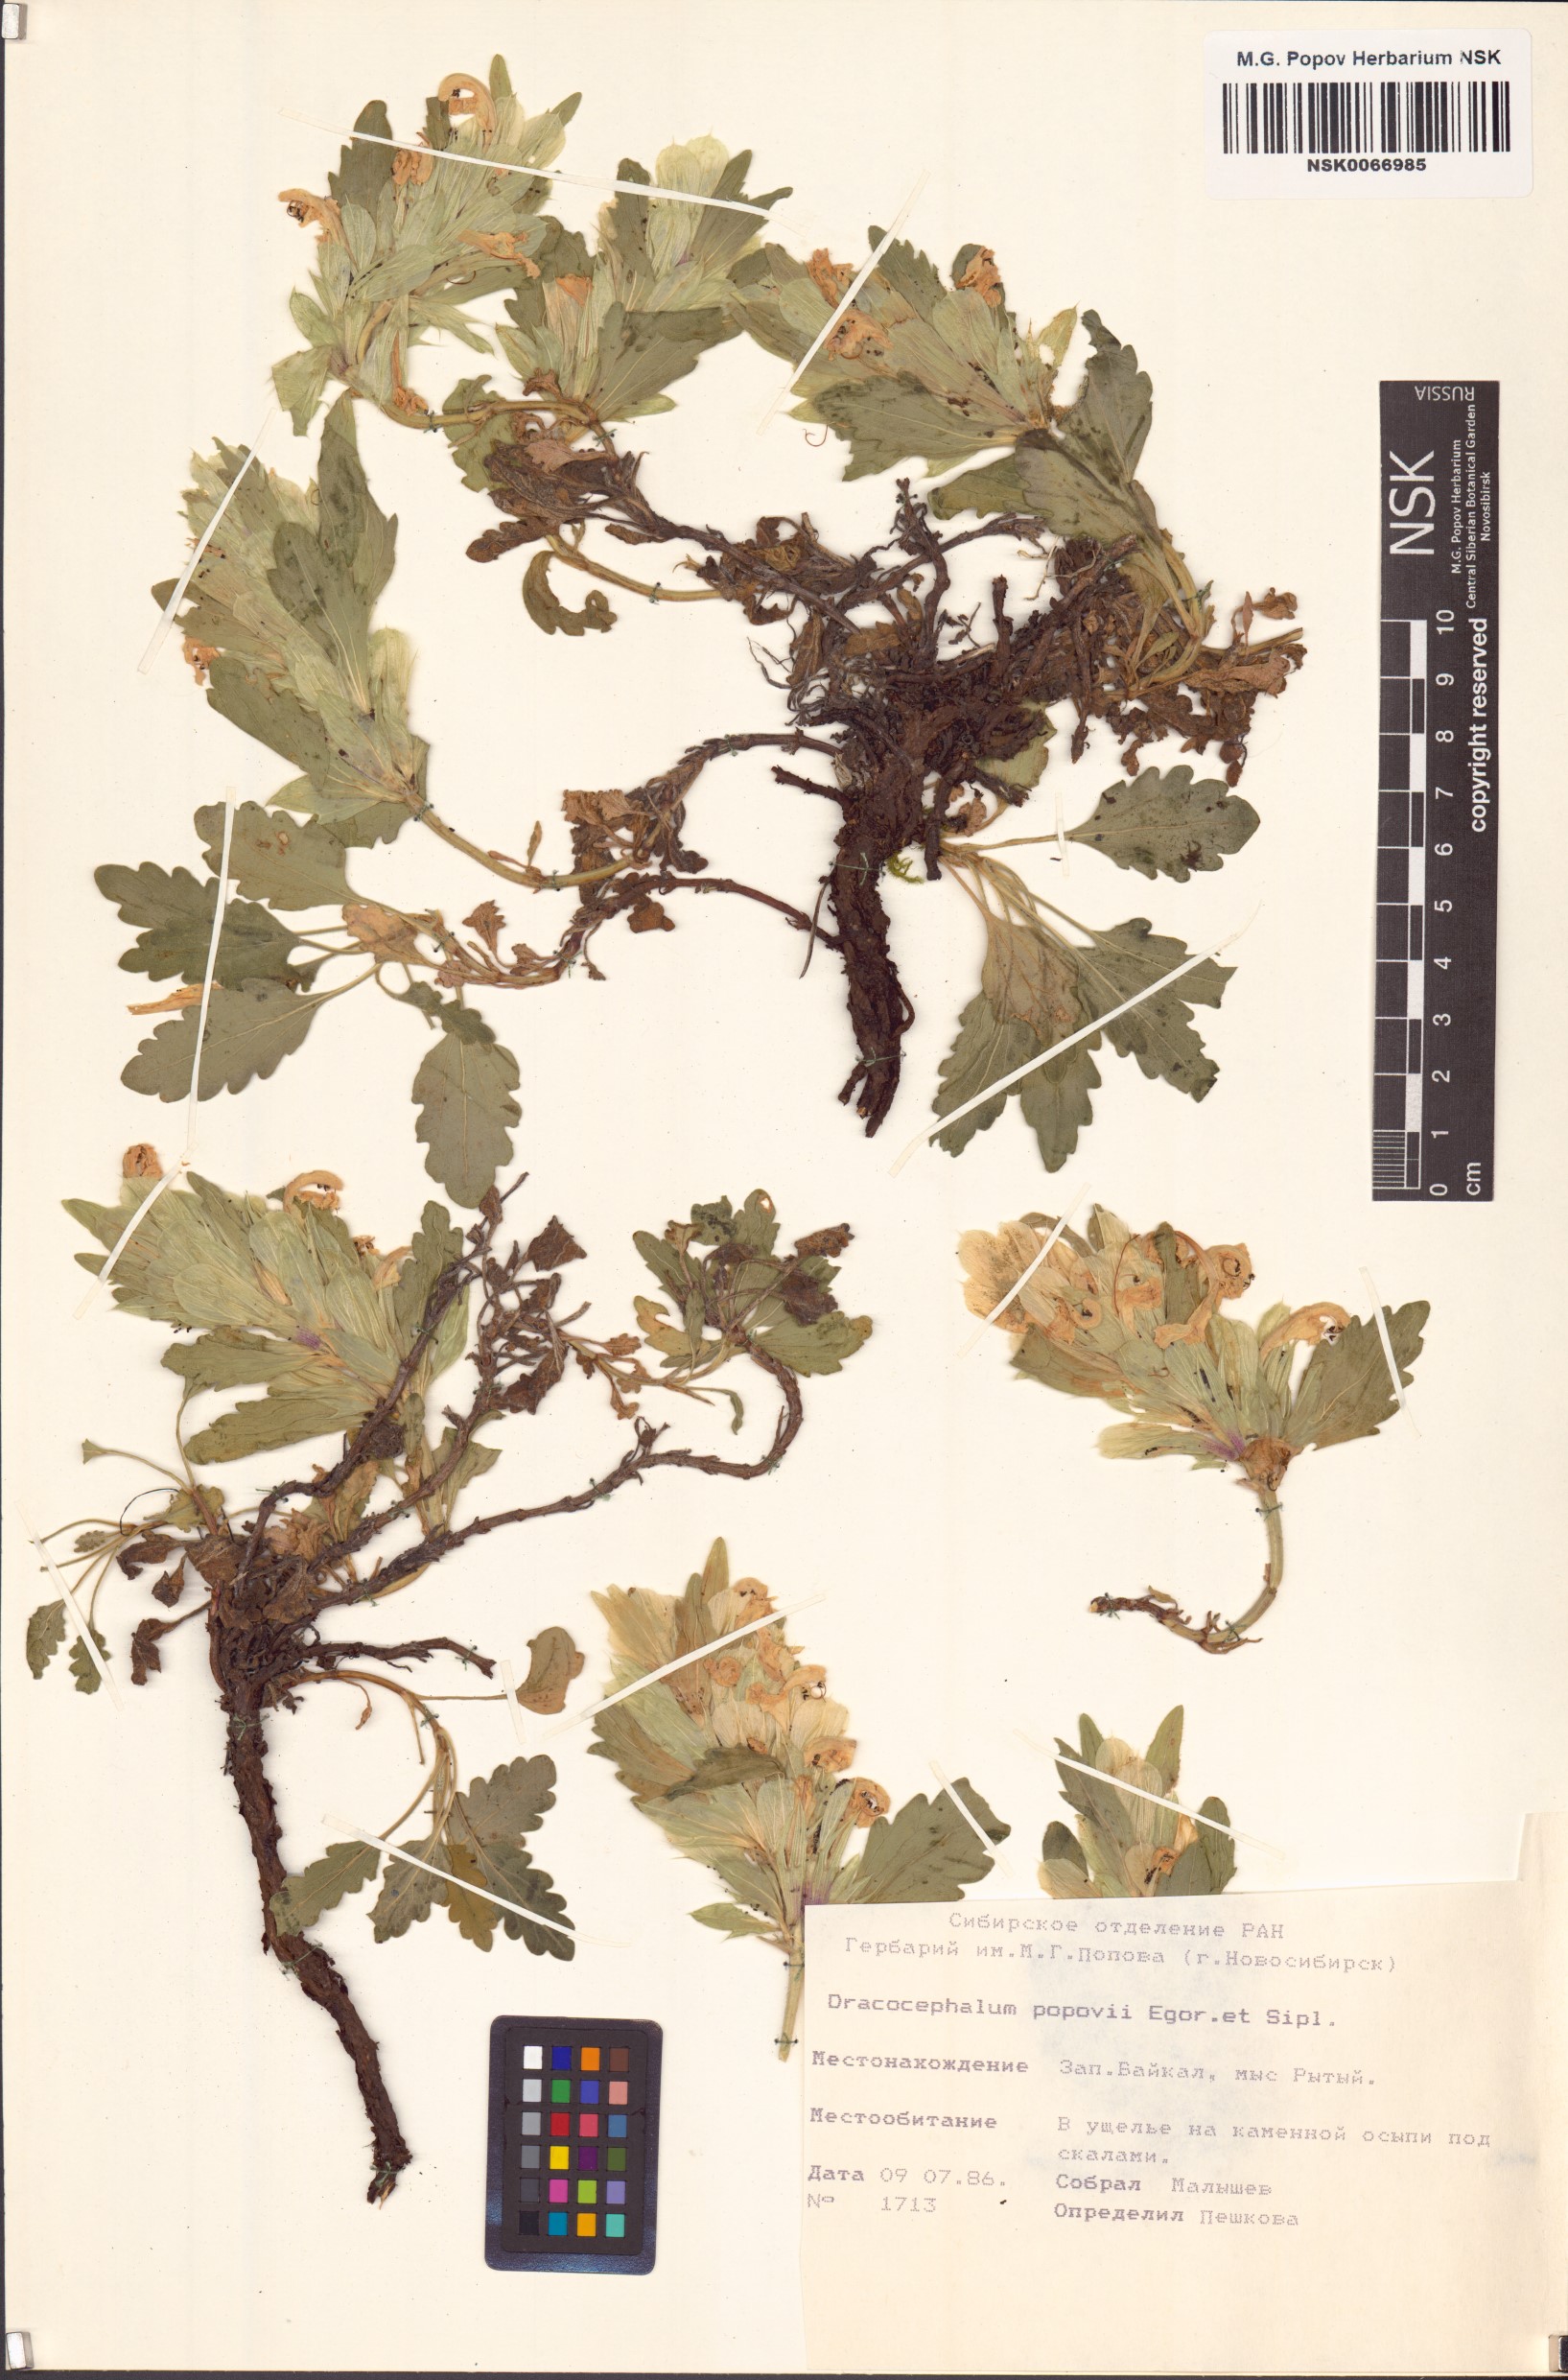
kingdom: Plantae
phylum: Tracheophyta
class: Magnoliopsida
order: Lamiales
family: Lamiaceae
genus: Dracocephalum
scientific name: Dracocephalum popovii
